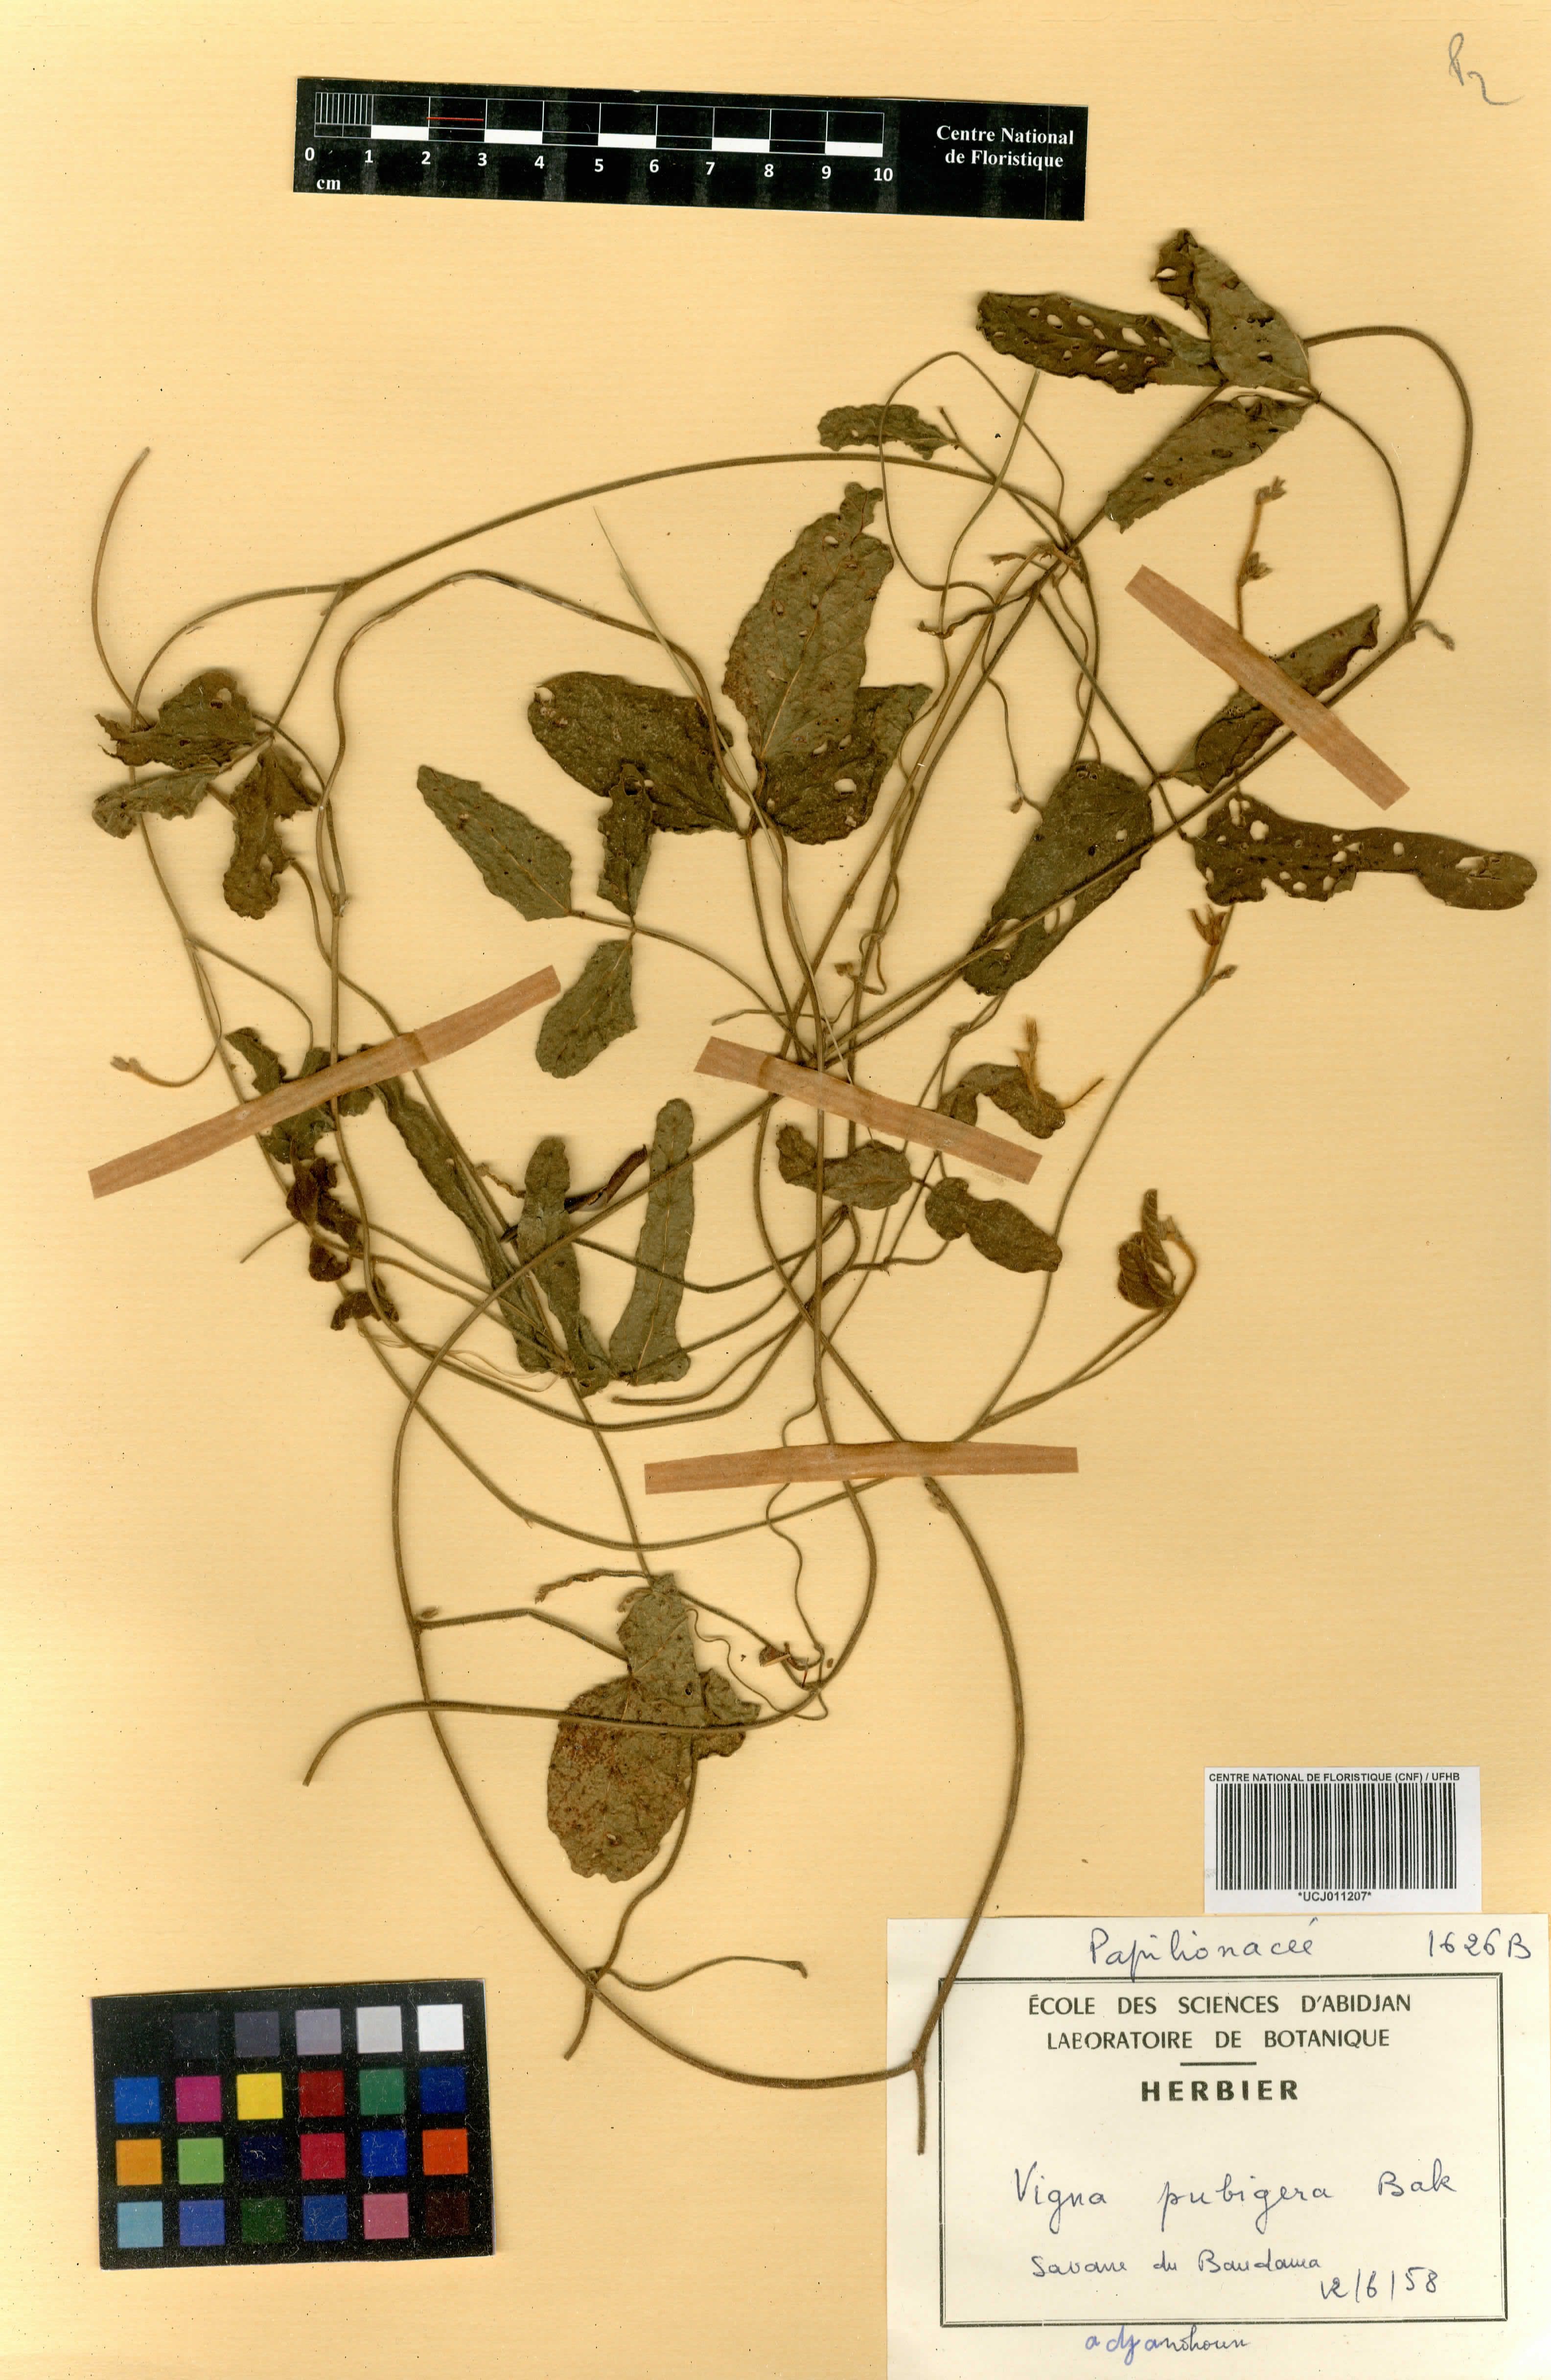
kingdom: Plantae
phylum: Tracheophyta
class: Magnoliopsida
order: Fabales
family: Fabaceae
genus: Vigna
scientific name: Vigna pubigera
